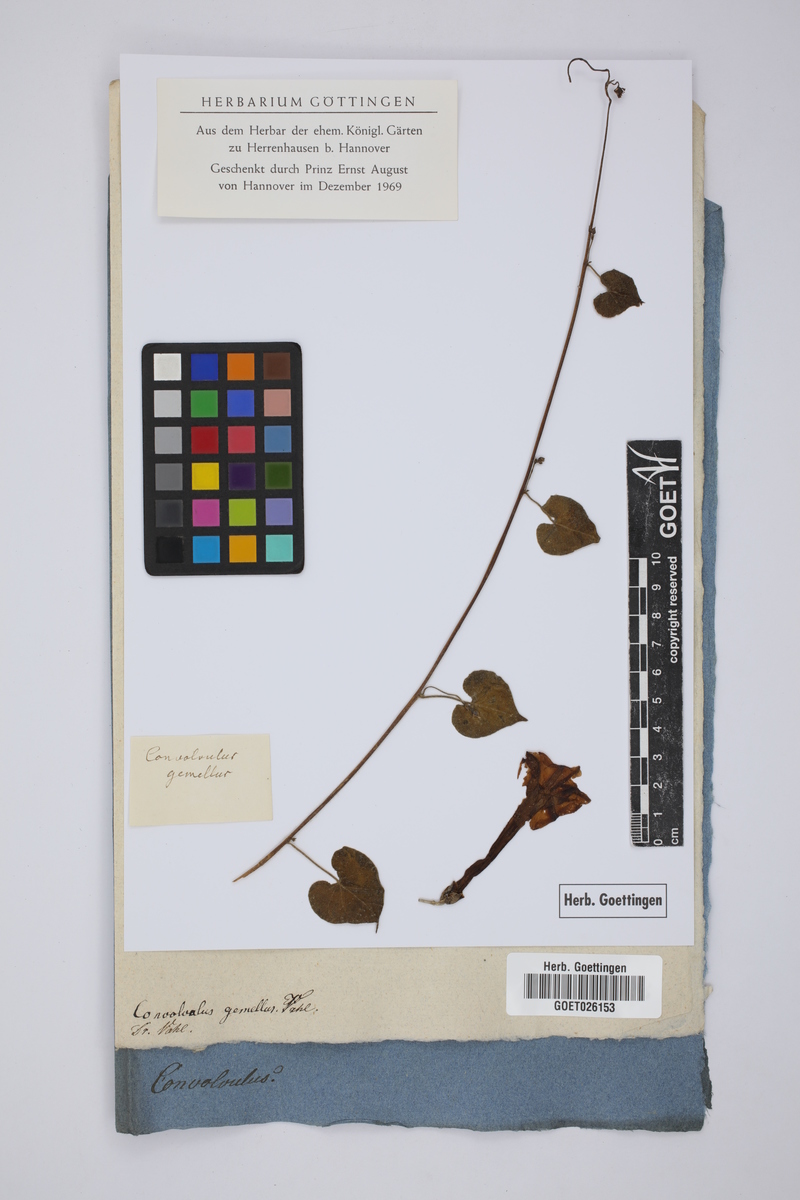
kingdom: Plantae
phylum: Tracheophyta
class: Magnoliopsida
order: Solanales
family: Convolvulaceae
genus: Merremia
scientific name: Merremia gemella
